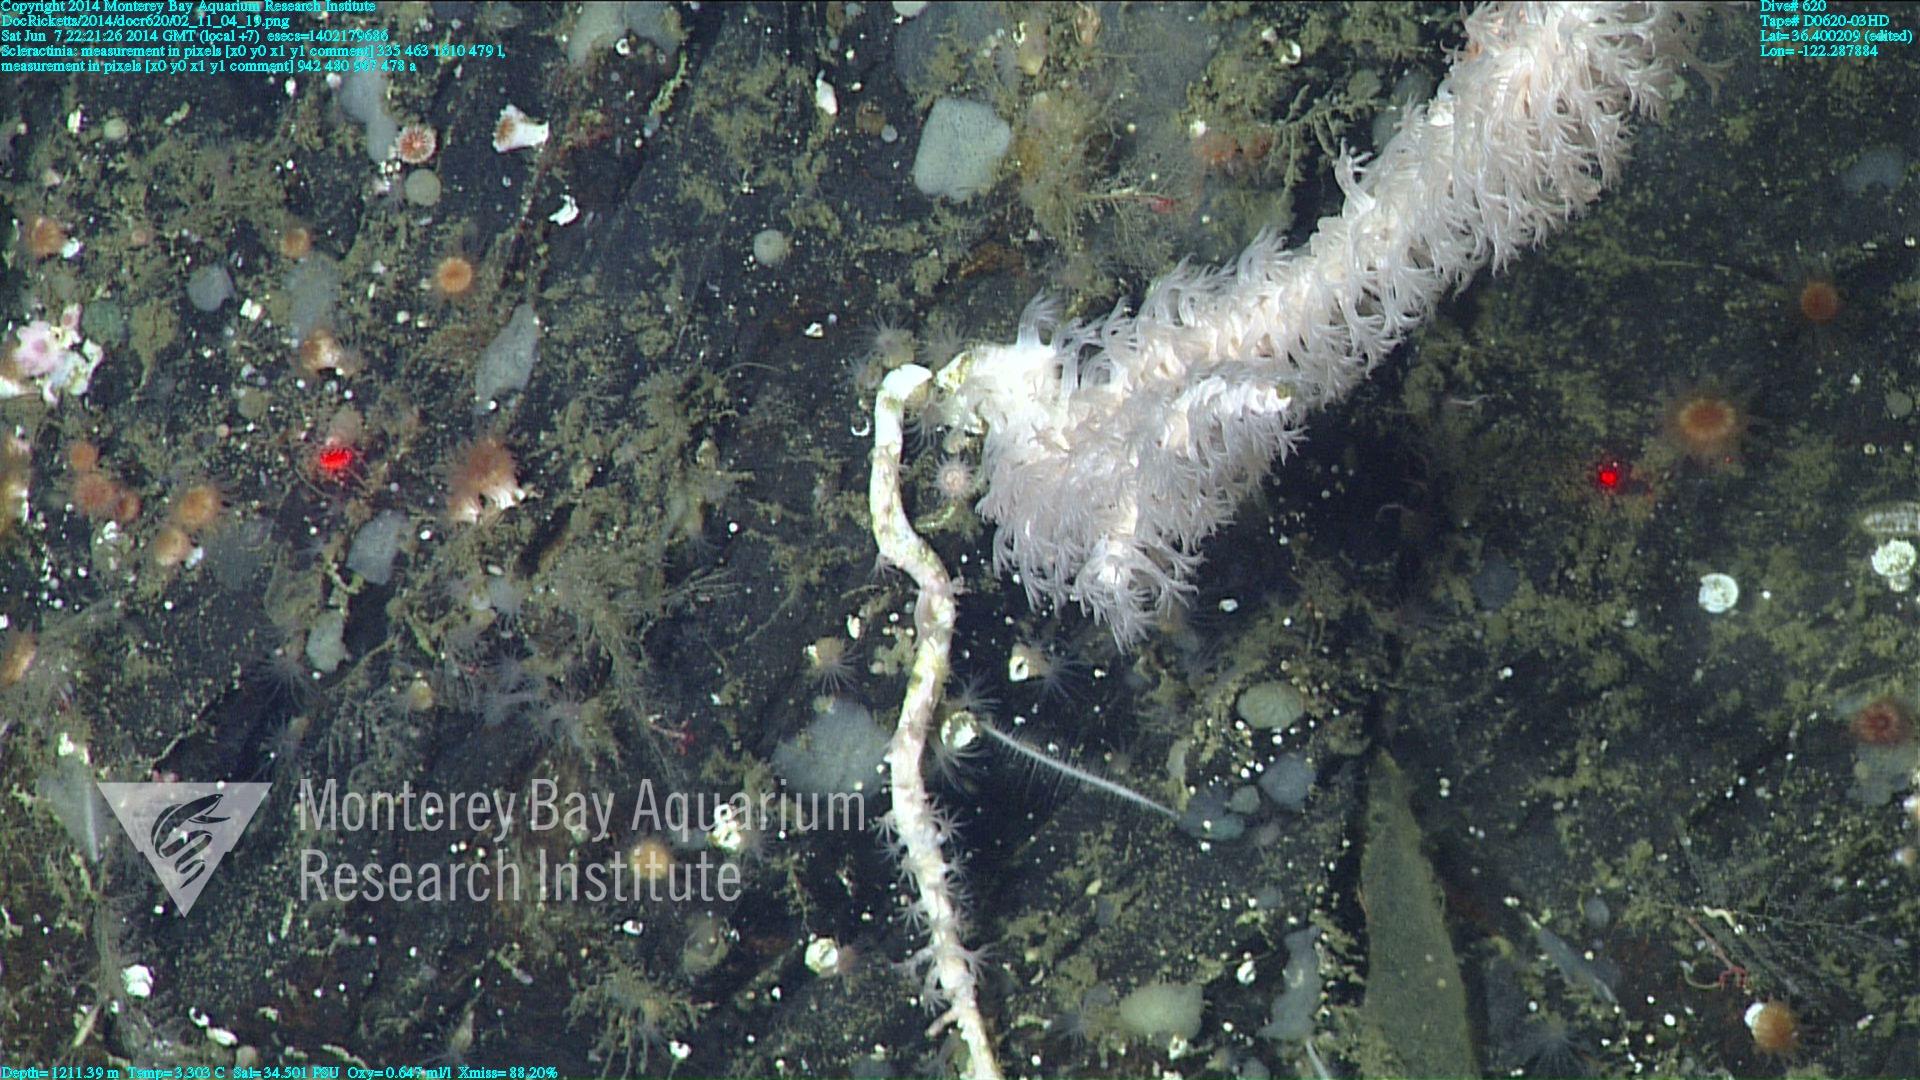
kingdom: Animalia
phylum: Cnidaria
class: Anthozoa
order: Scleractinia
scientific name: Scleractinia
